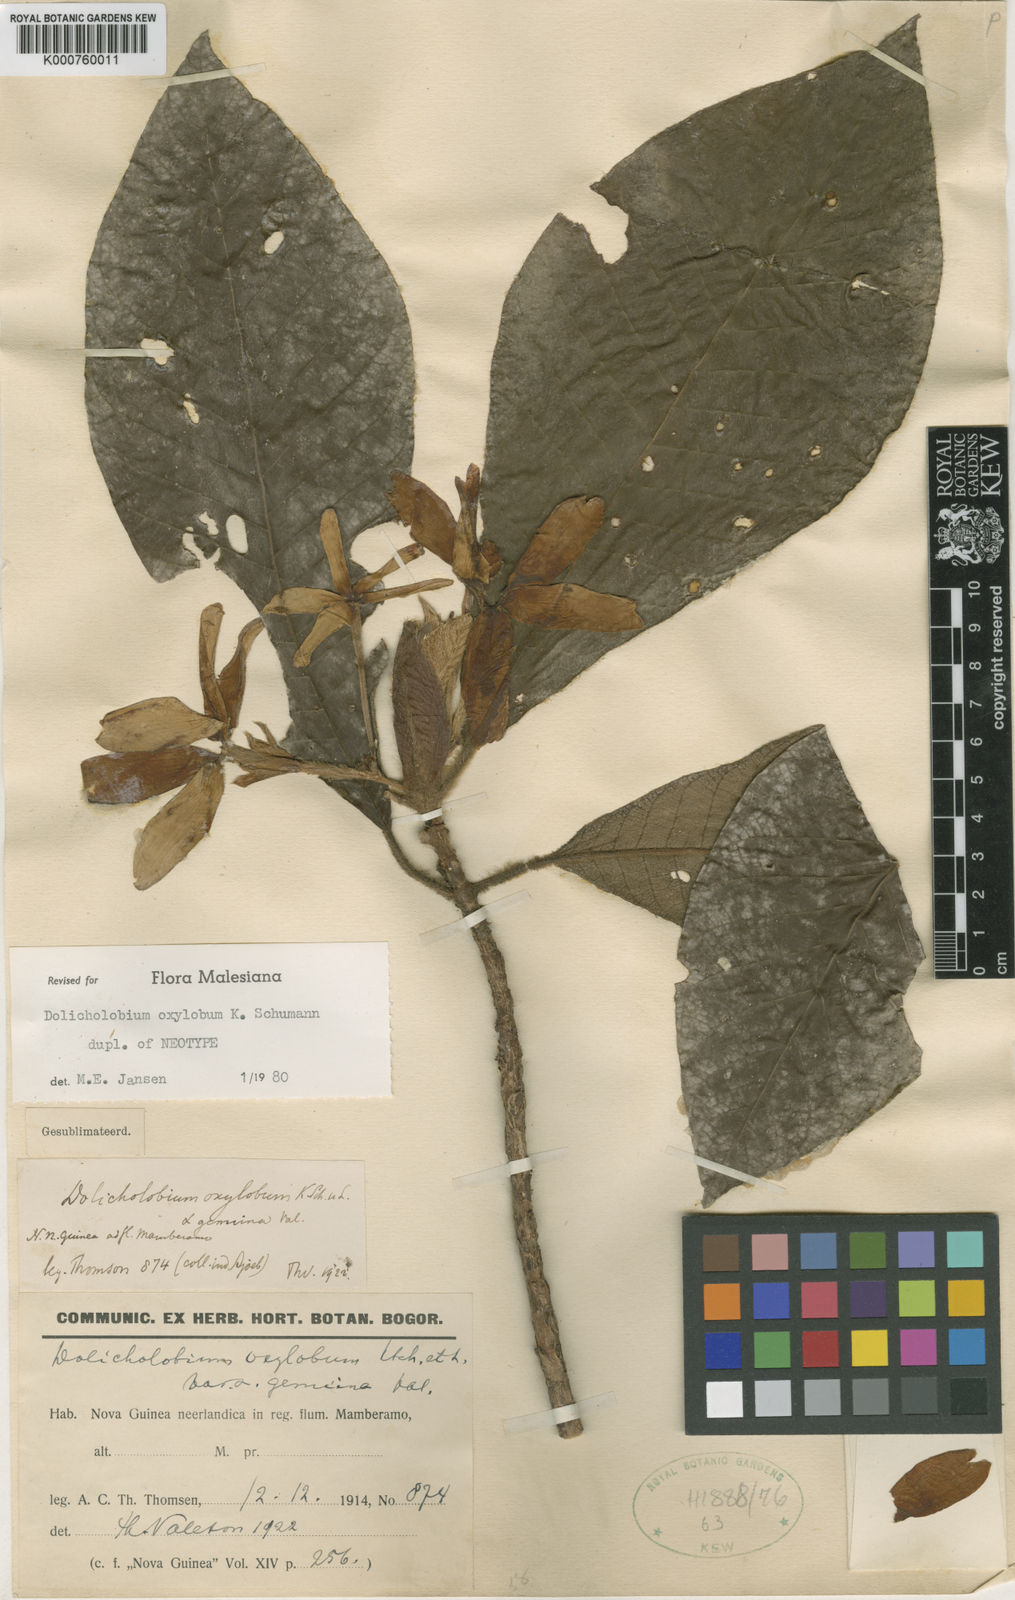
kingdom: Plantae
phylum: Tracheophyta
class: Magnoliopsida
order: Gentianales
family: Rubiaceae
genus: Dolicholobium
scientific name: Dolicholobium oxylobum
